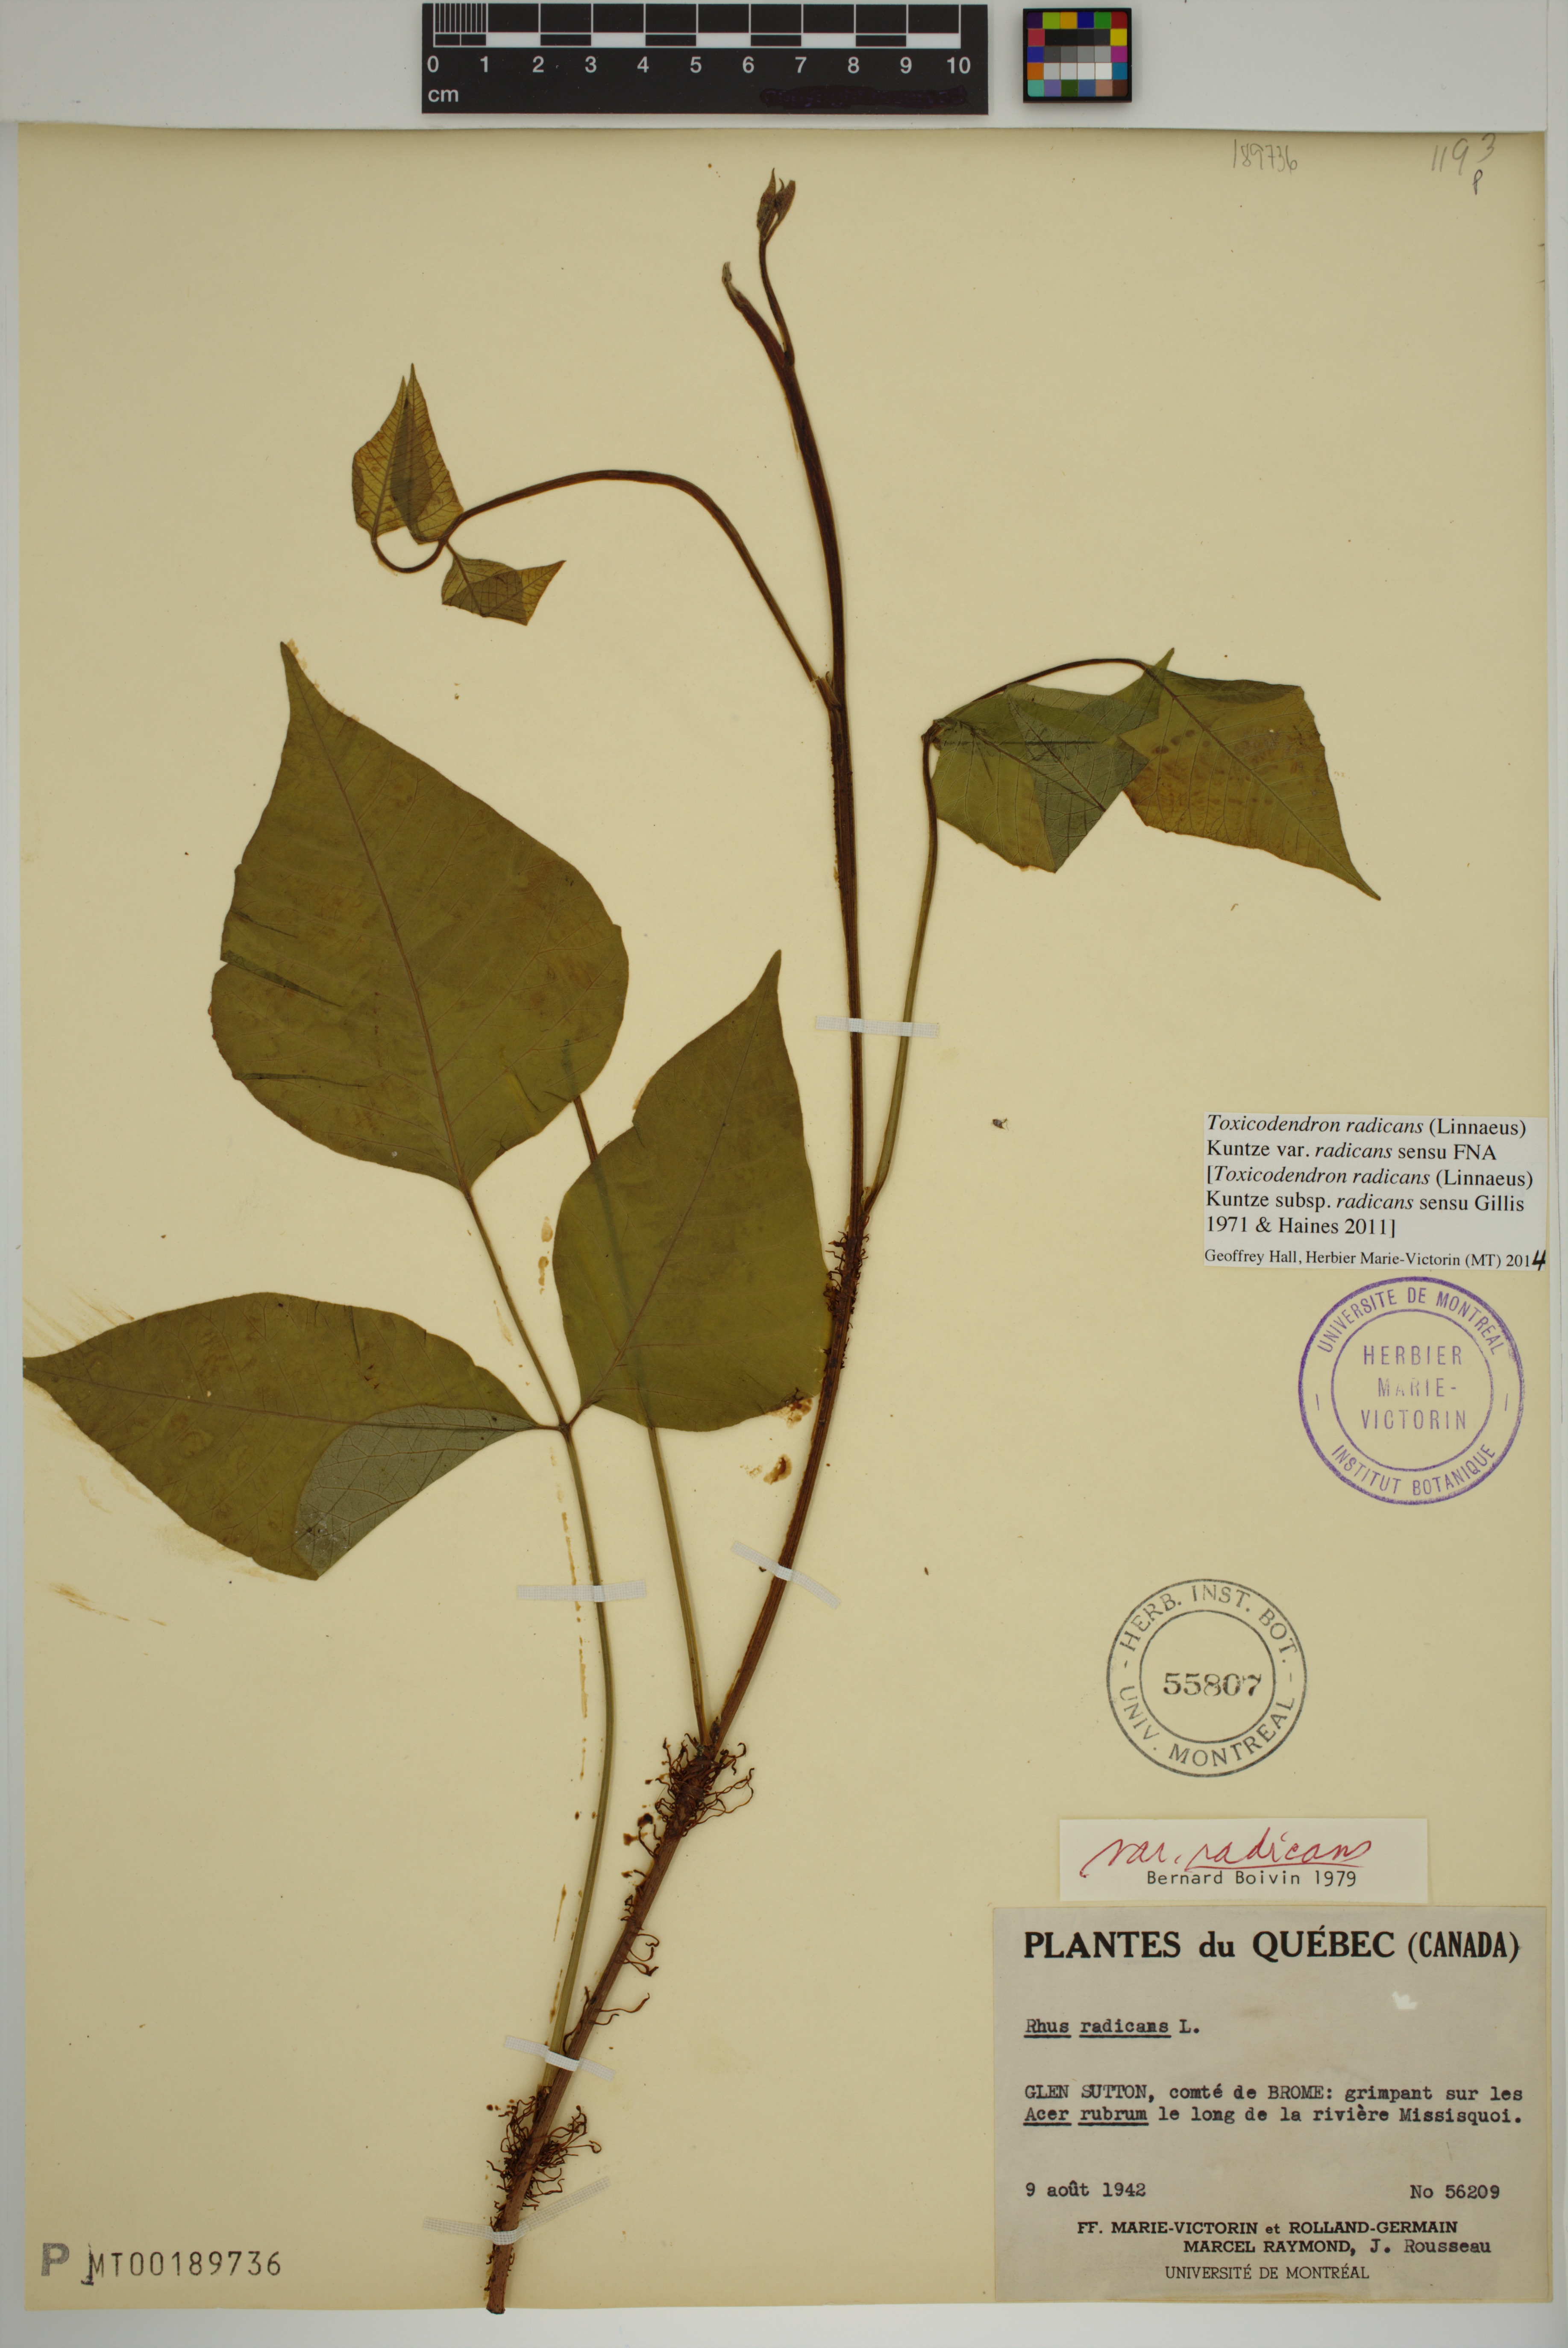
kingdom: Plantae
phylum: Tracheophyta
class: Magnoliopsida
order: Sapindales
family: Anacardiaceae
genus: Toxicodendron
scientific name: Toxicodendron radicans
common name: Poison ivy
